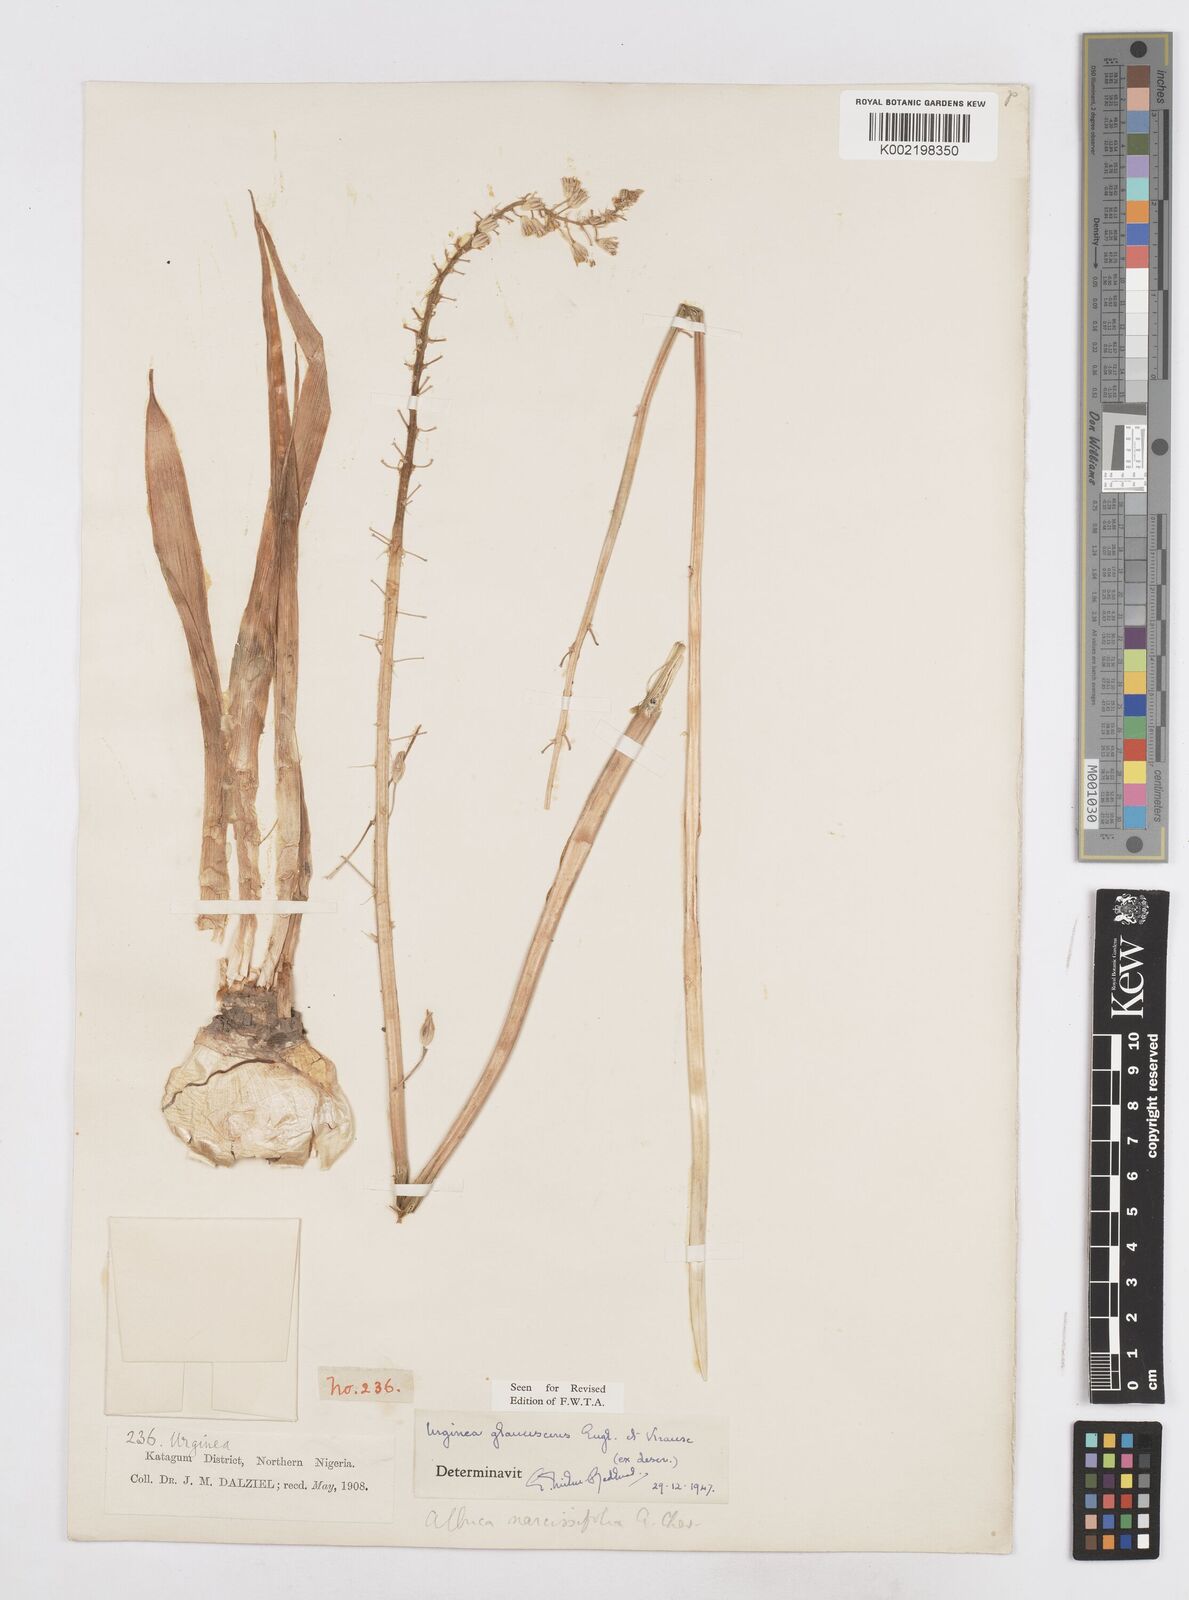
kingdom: Plantae
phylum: Tracheophyta
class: Liliopsida
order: Asparagales
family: Asparagaceae
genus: Ledebouria
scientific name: Ledebouria ensifolia
